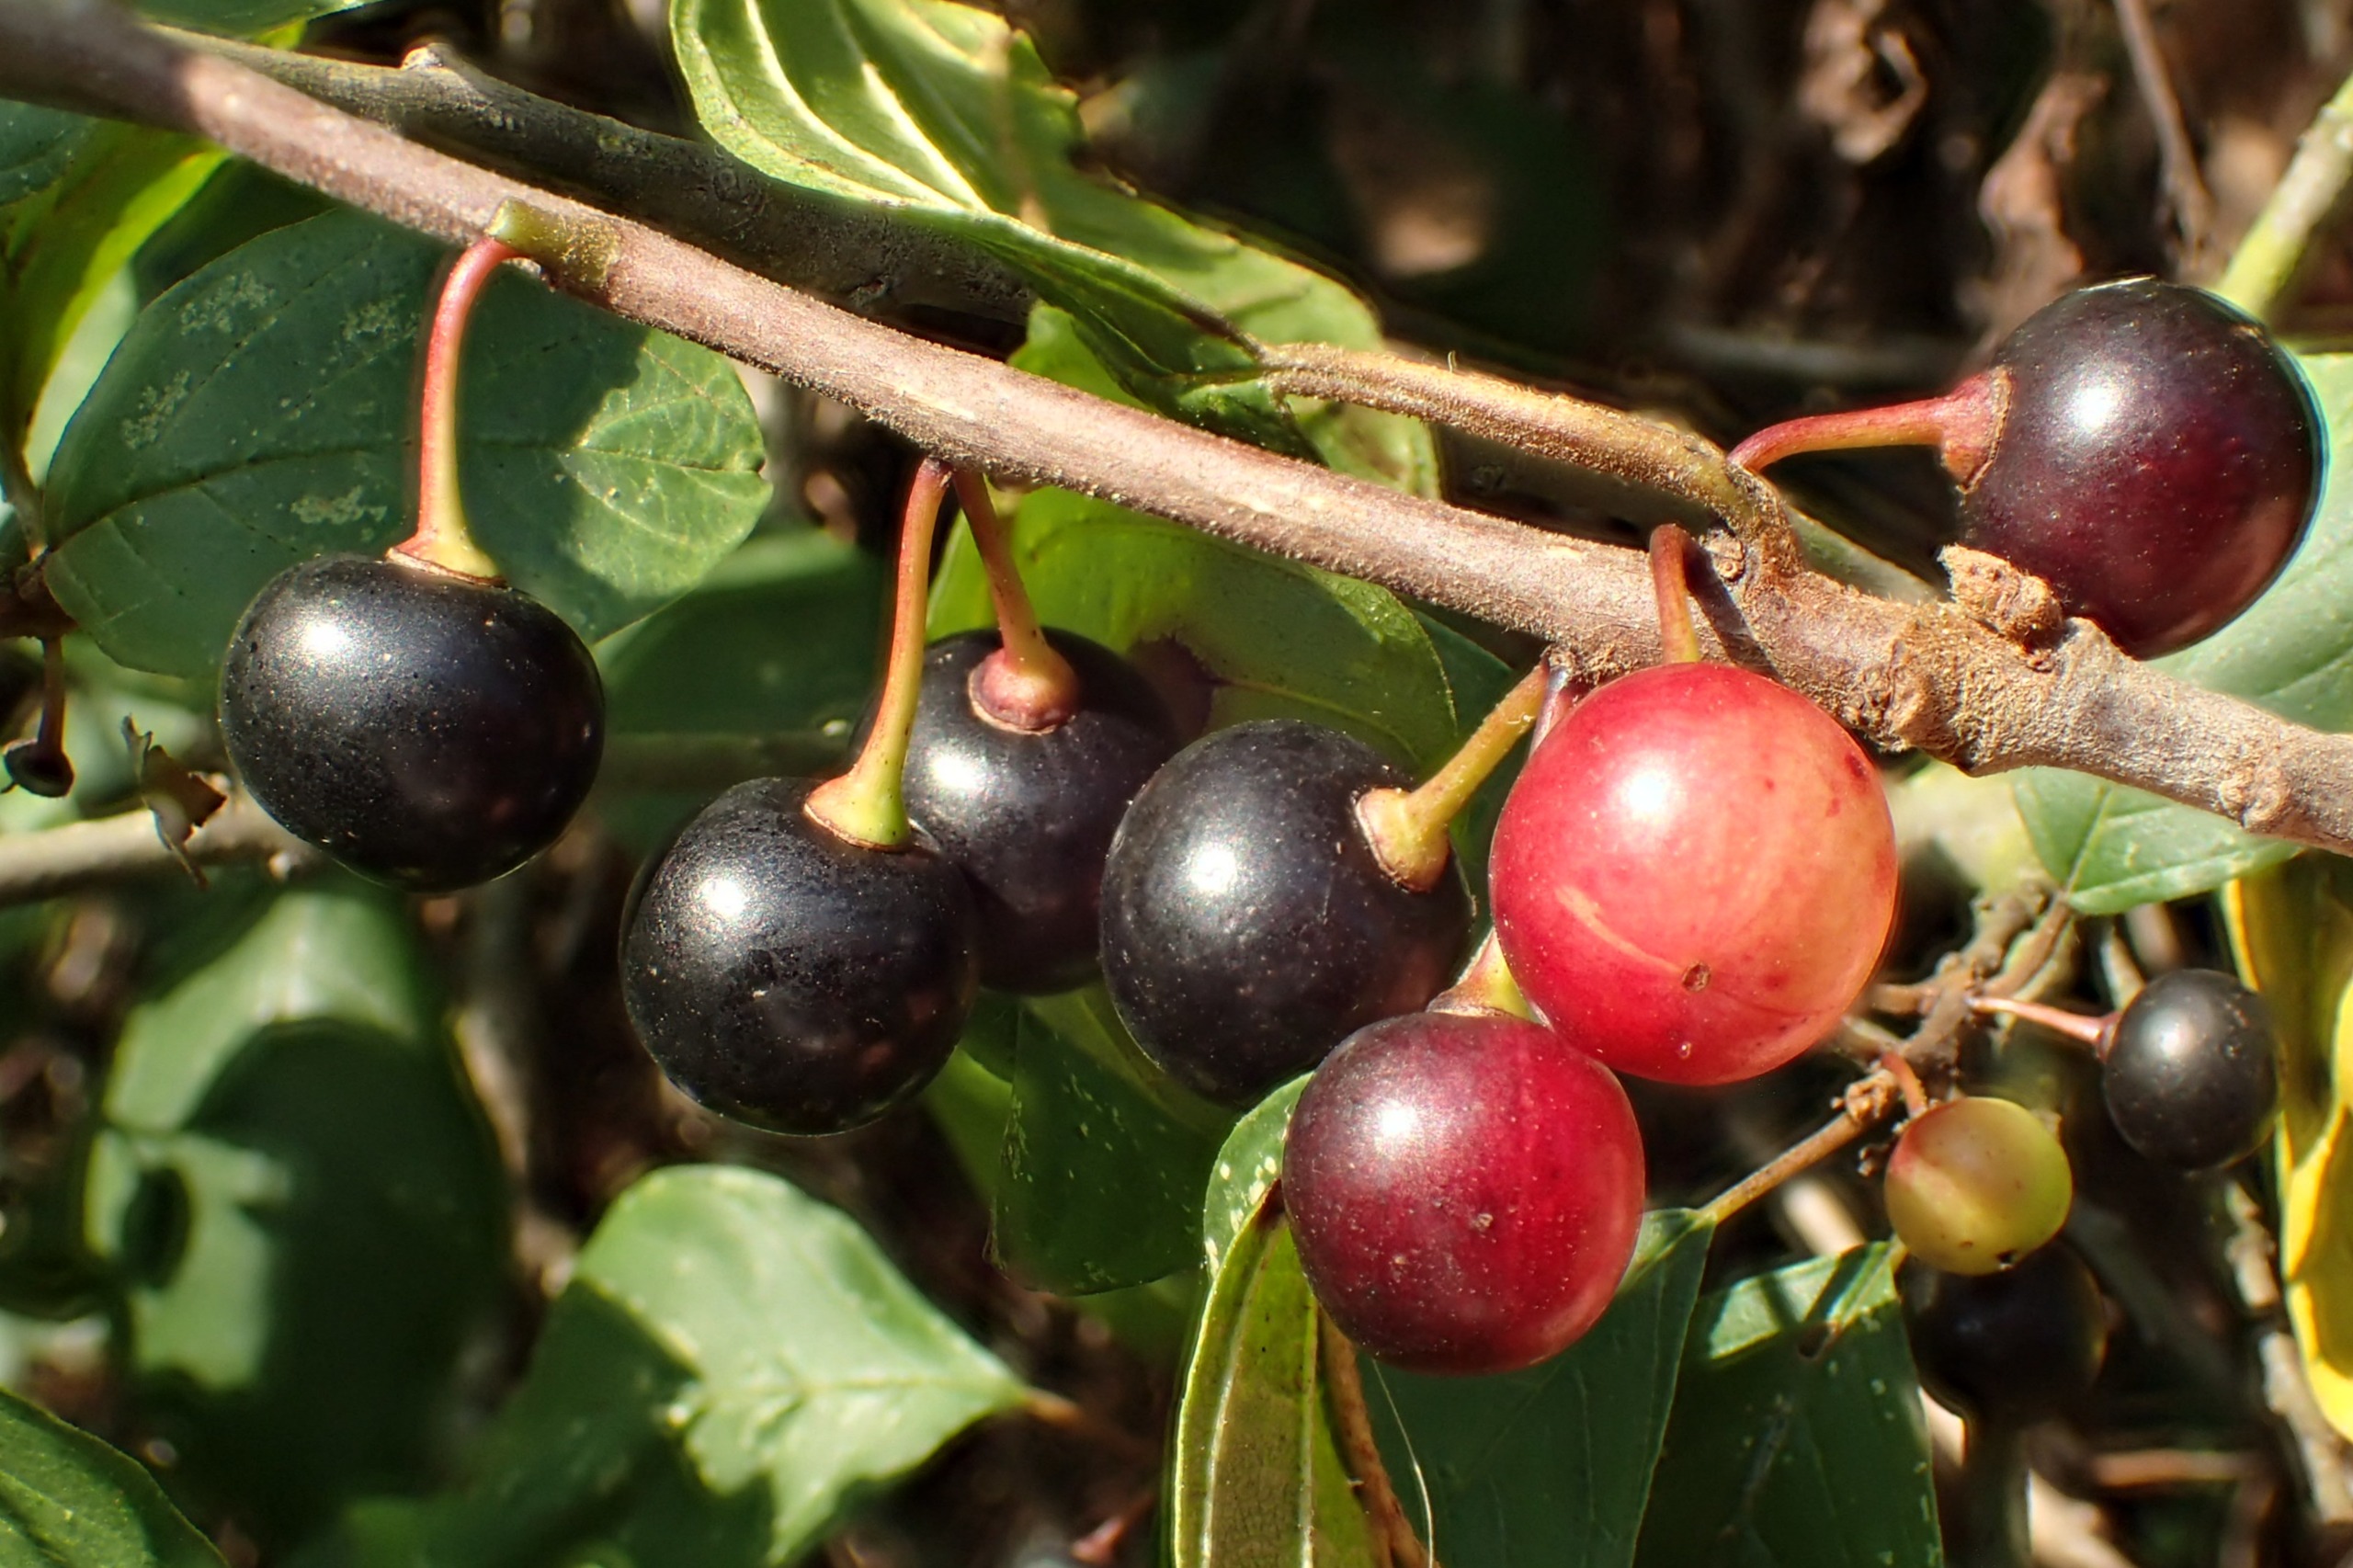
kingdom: Plantae
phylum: Tracheophyta
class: Magnoliopsida
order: Rosales
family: Rhamnaceae
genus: Frangula
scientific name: Frangula alnus
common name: Tørst
